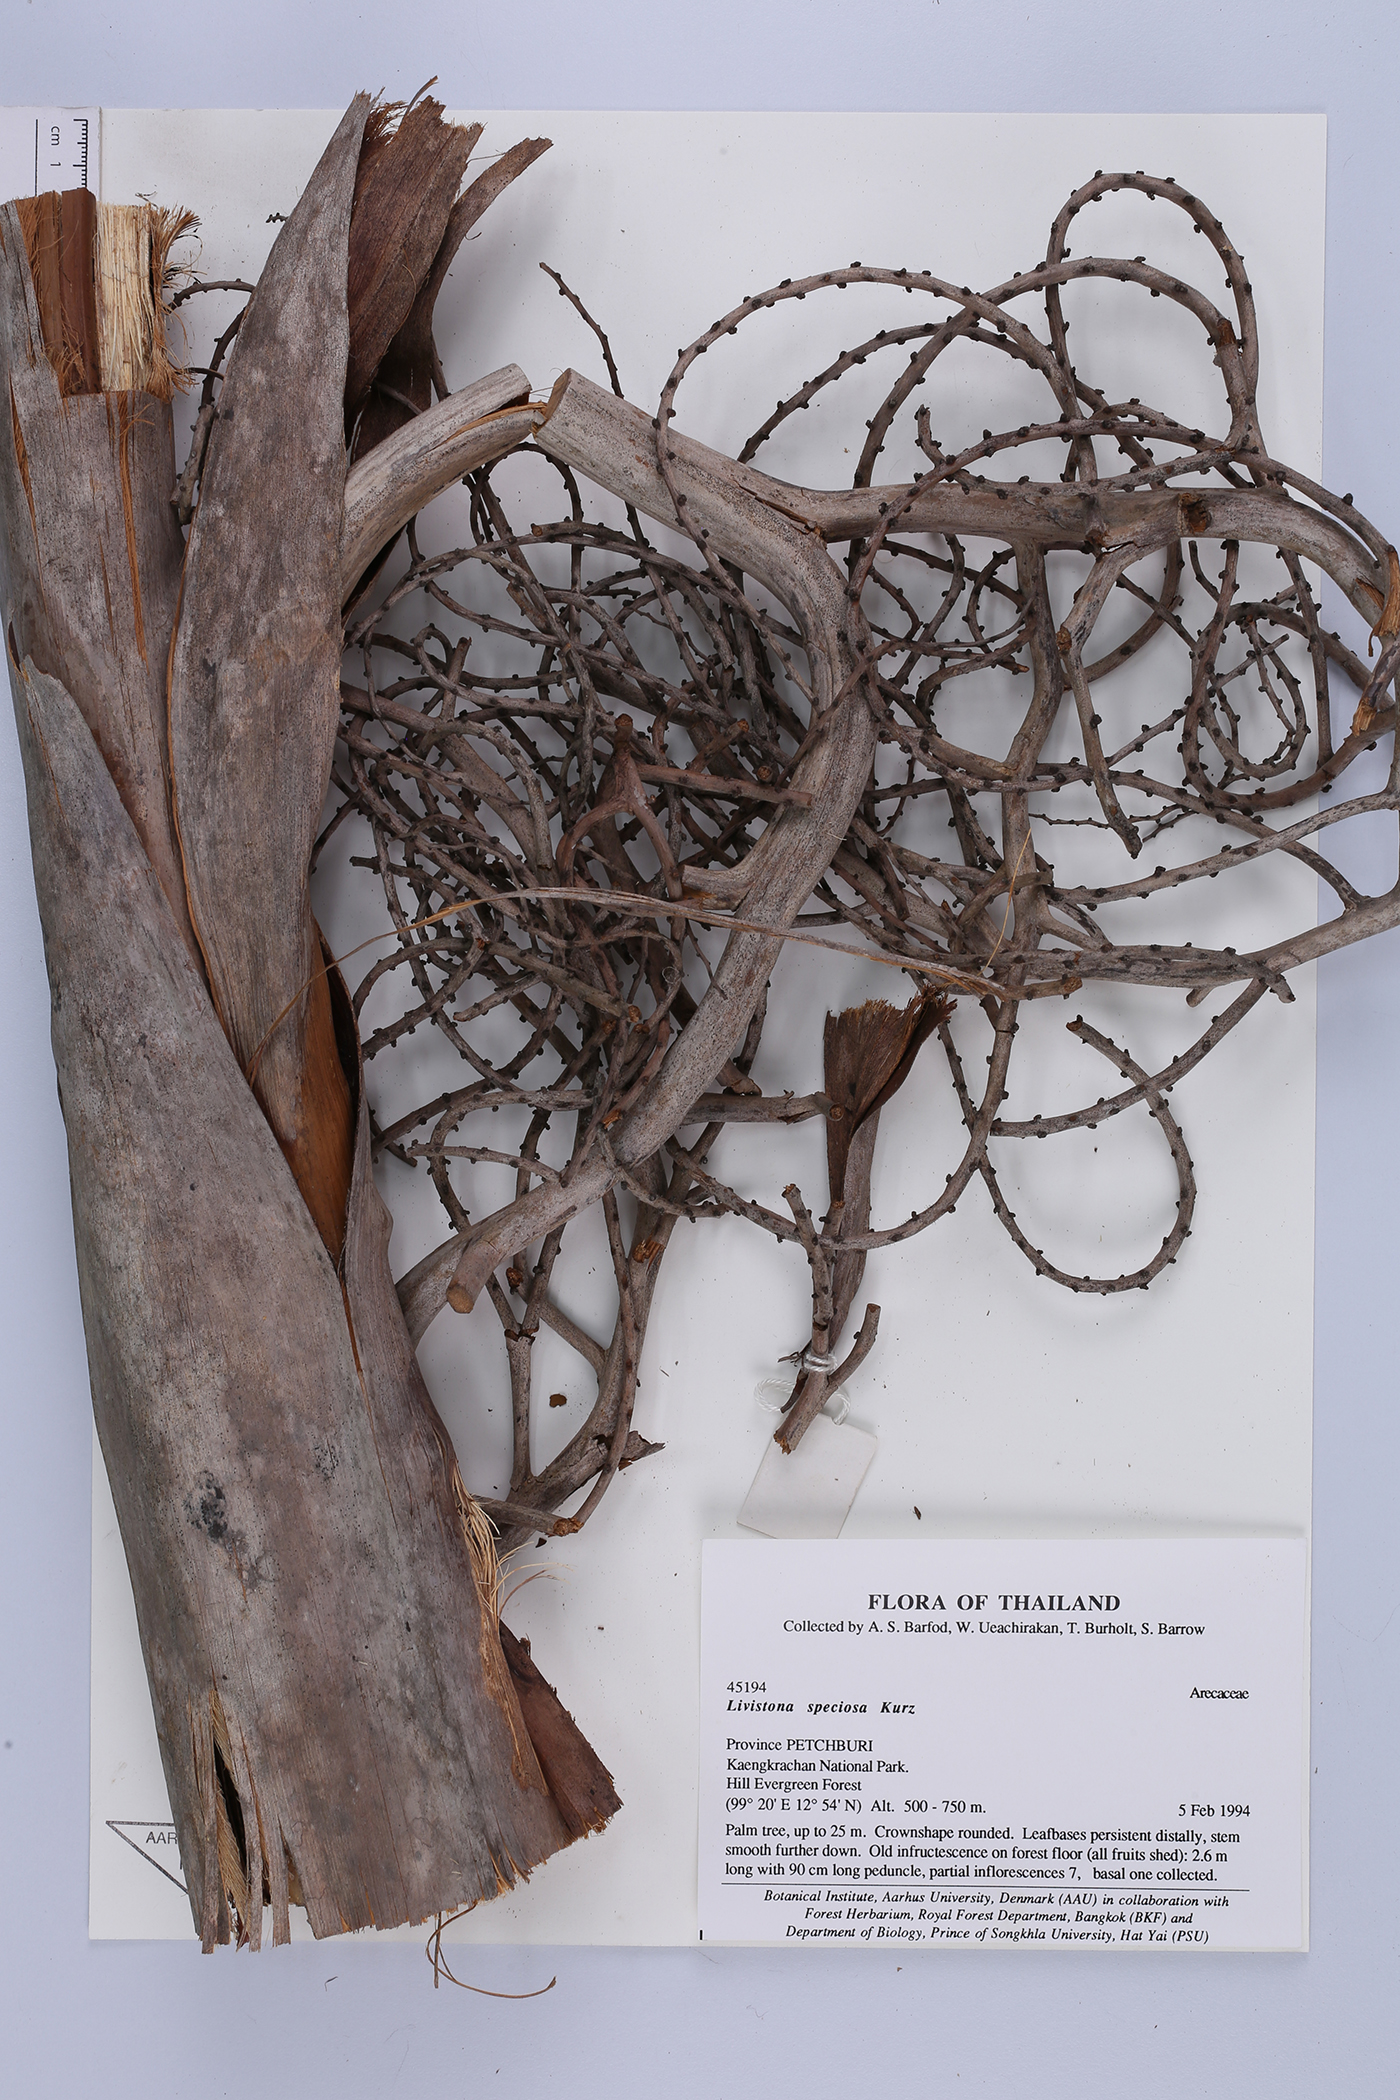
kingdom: Plantae
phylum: Tracheophyta
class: Liliopsida
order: Arecales
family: Arecaceae
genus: Livistona
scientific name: Livistona speciosa
